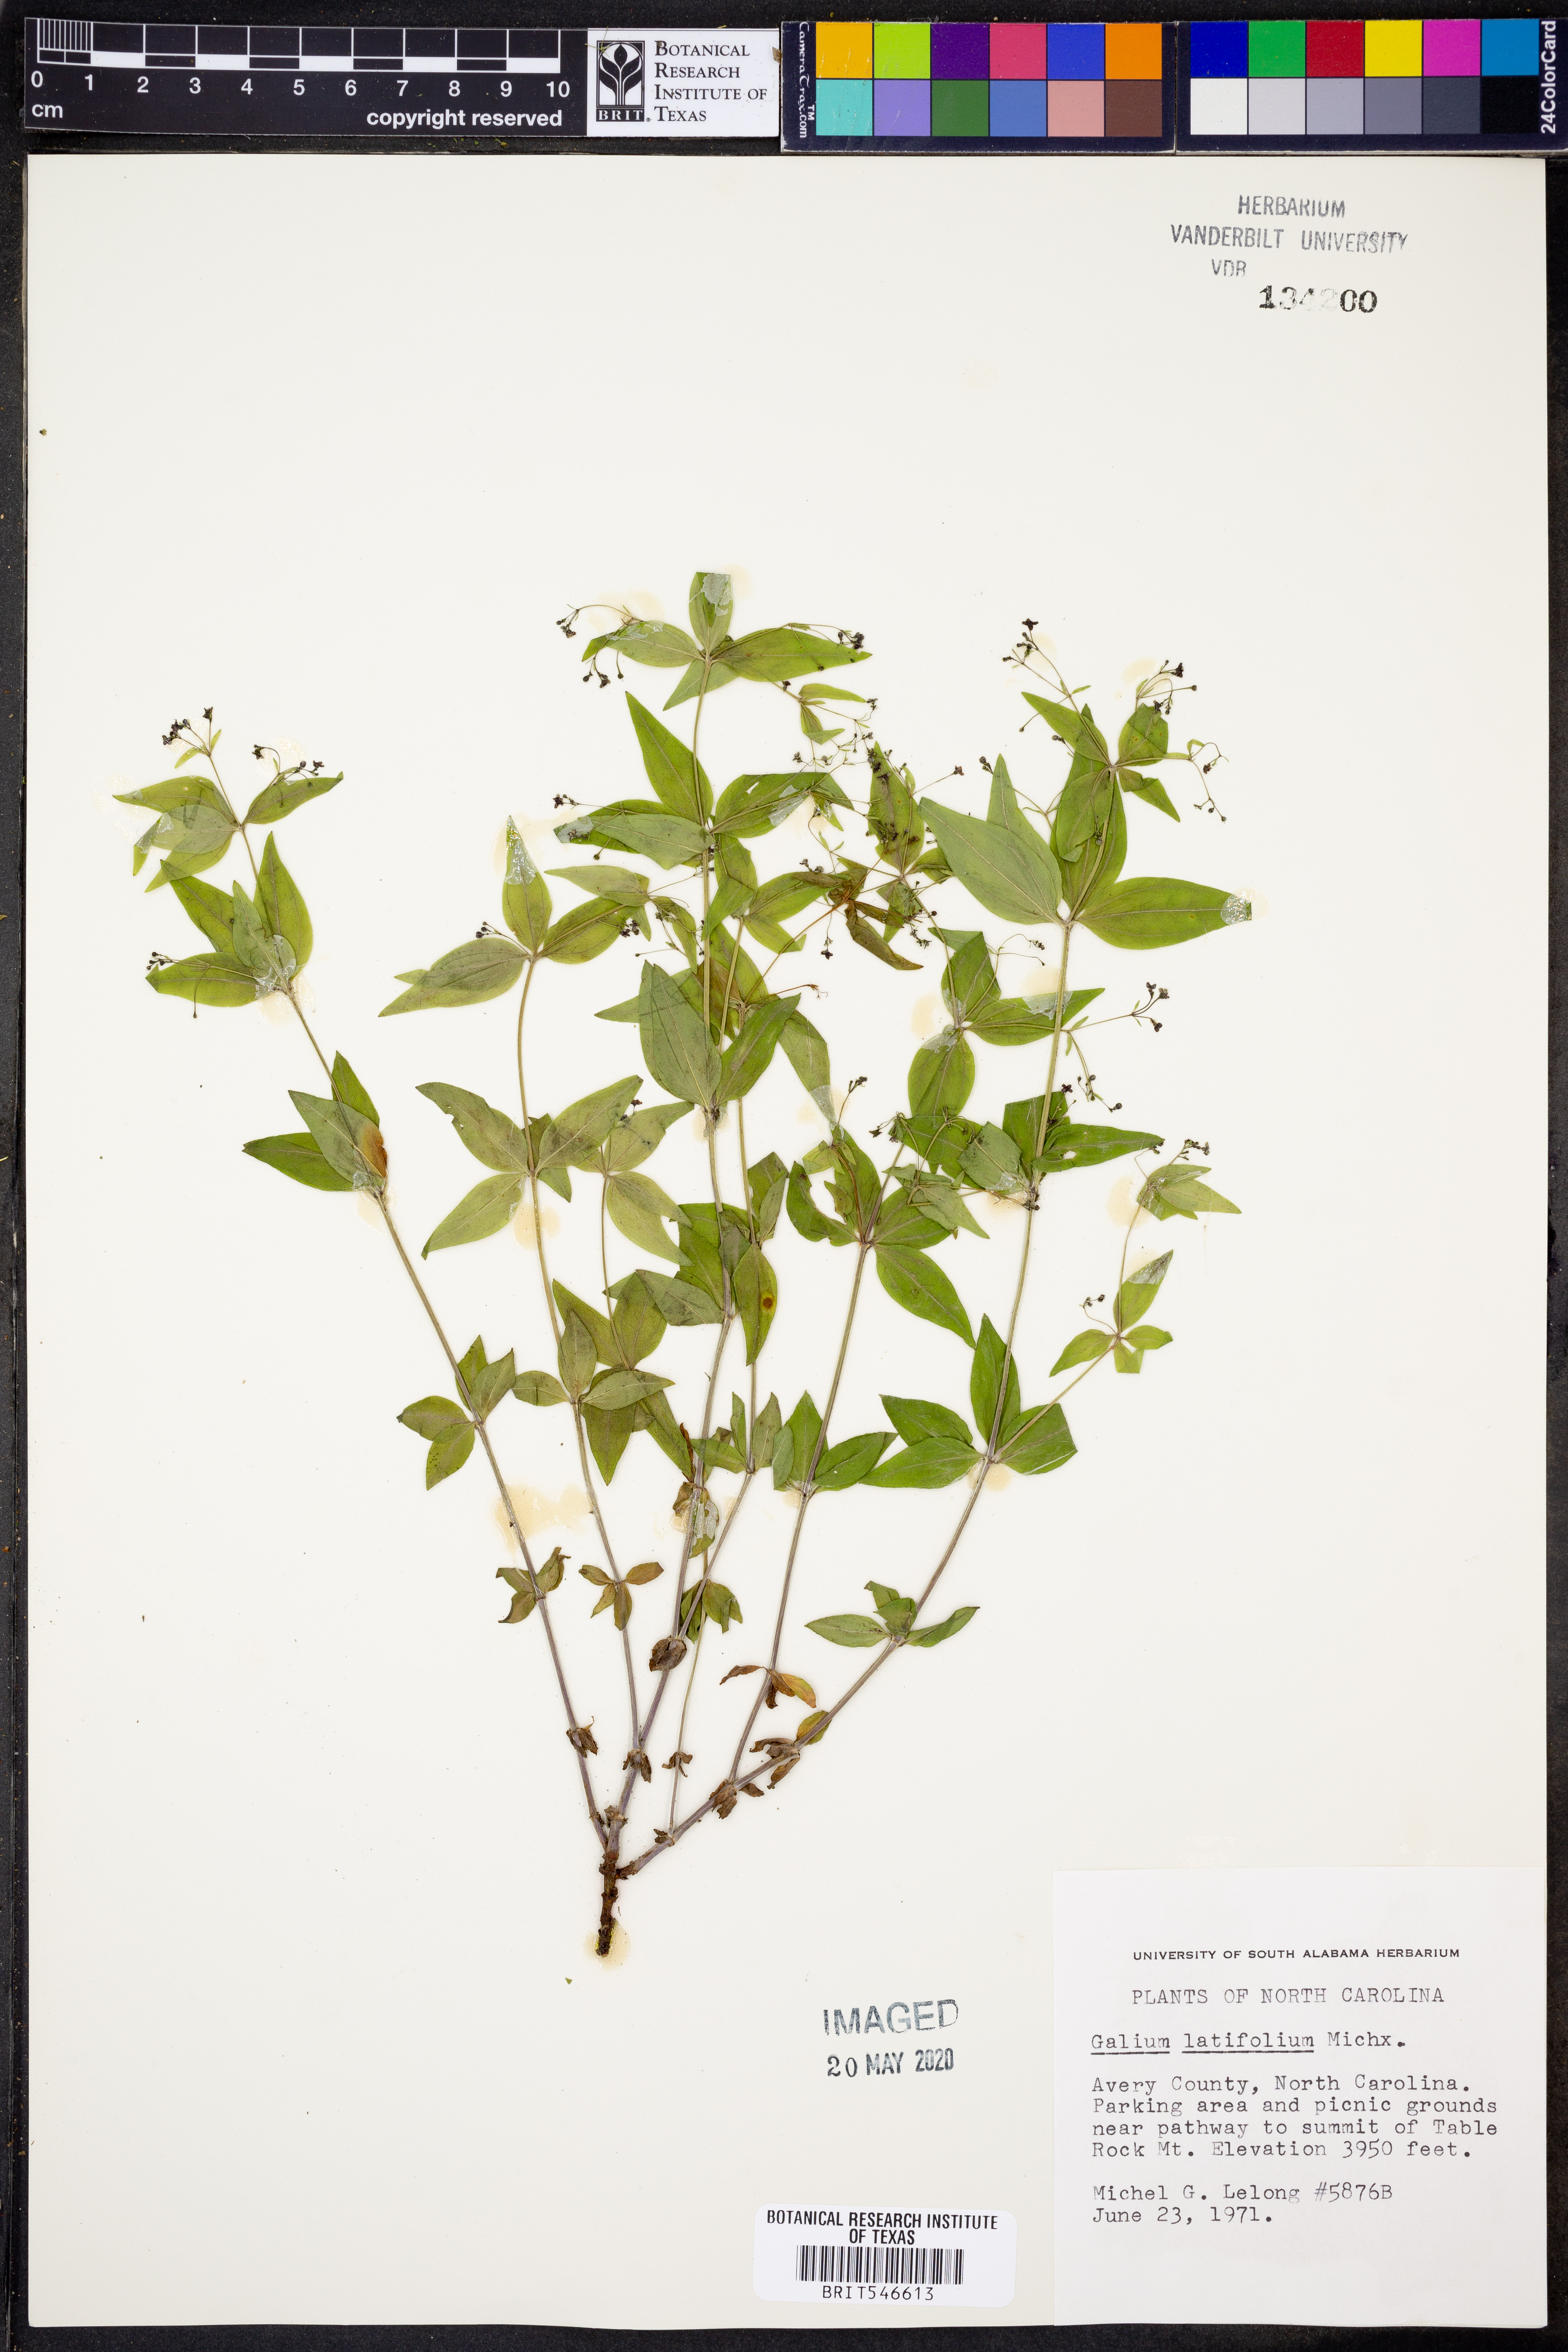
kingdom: Plantae
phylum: Tracheophyta
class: Magnoliopsida
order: Gentianales
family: Rubiaceae
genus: Galium
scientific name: Galium latifolium
